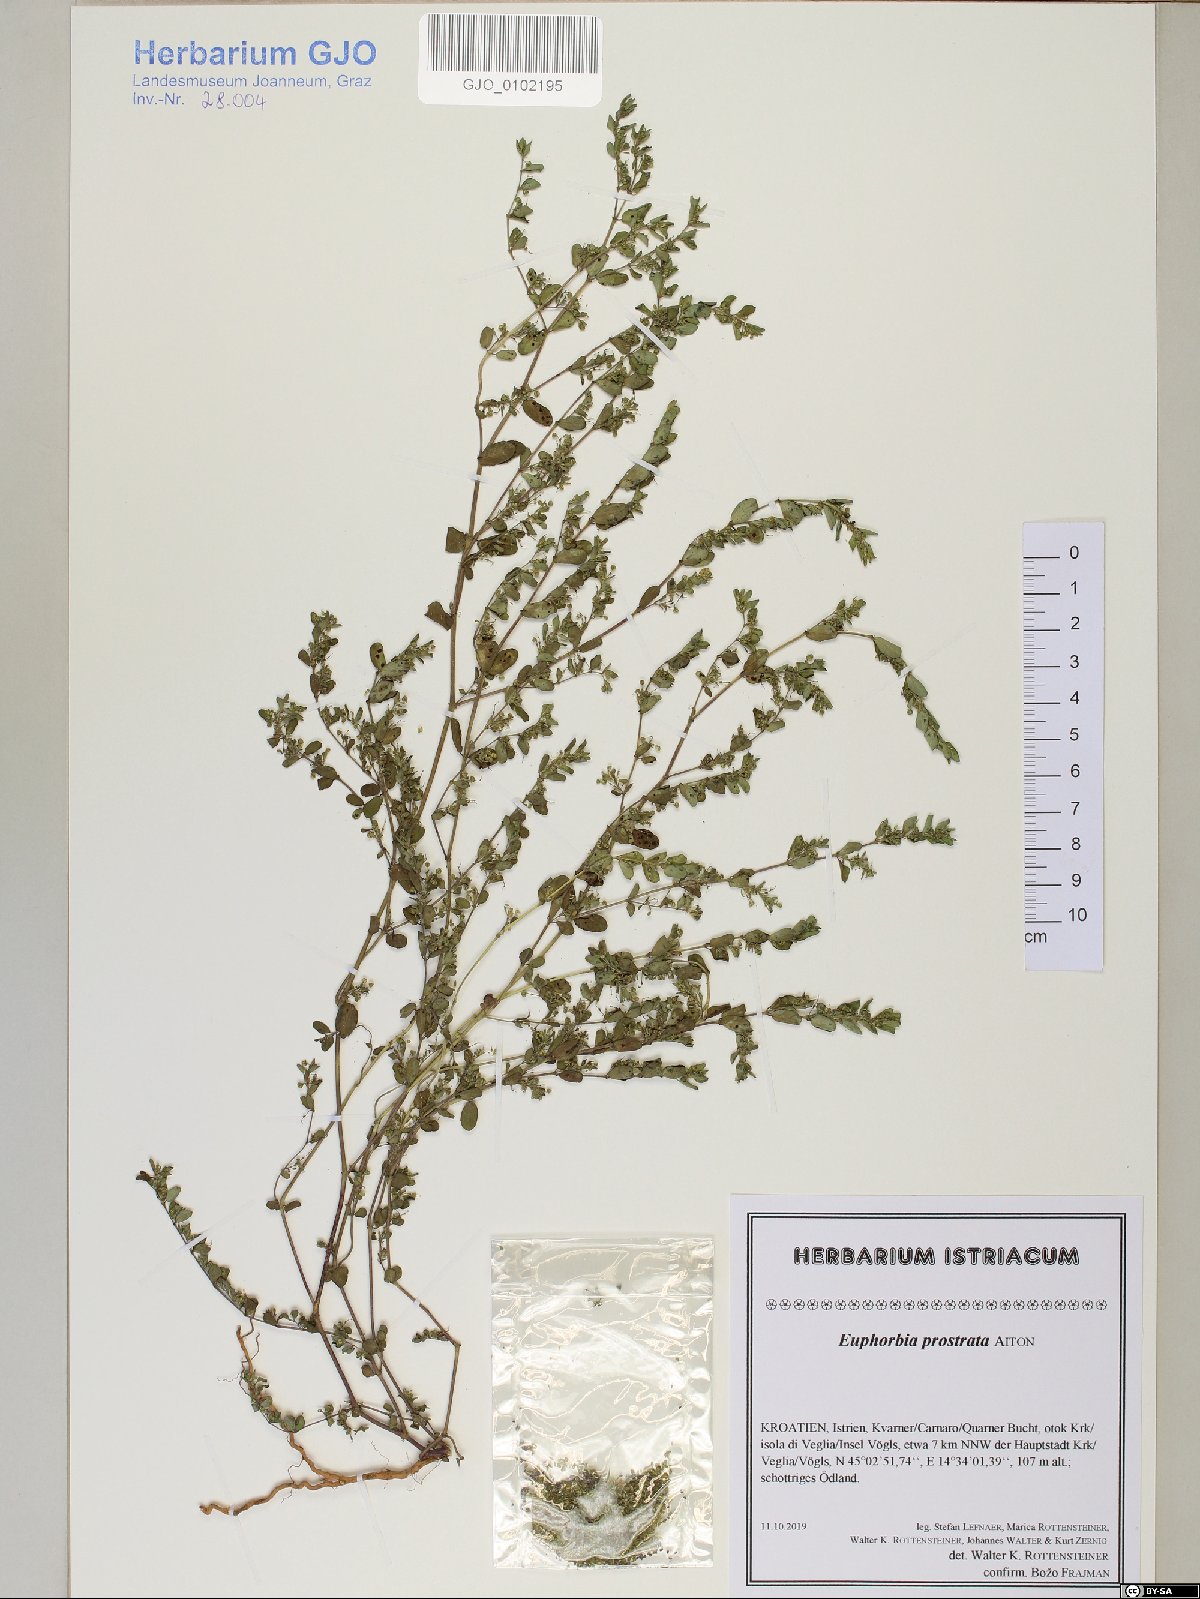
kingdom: Plantae
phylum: Tracheophyta
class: Magnoliopsida
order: Malpighiales
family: Euphorbiaceae
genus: Euphorbia
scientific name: Euphorbia prostrata
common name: Prostrate sandmat
